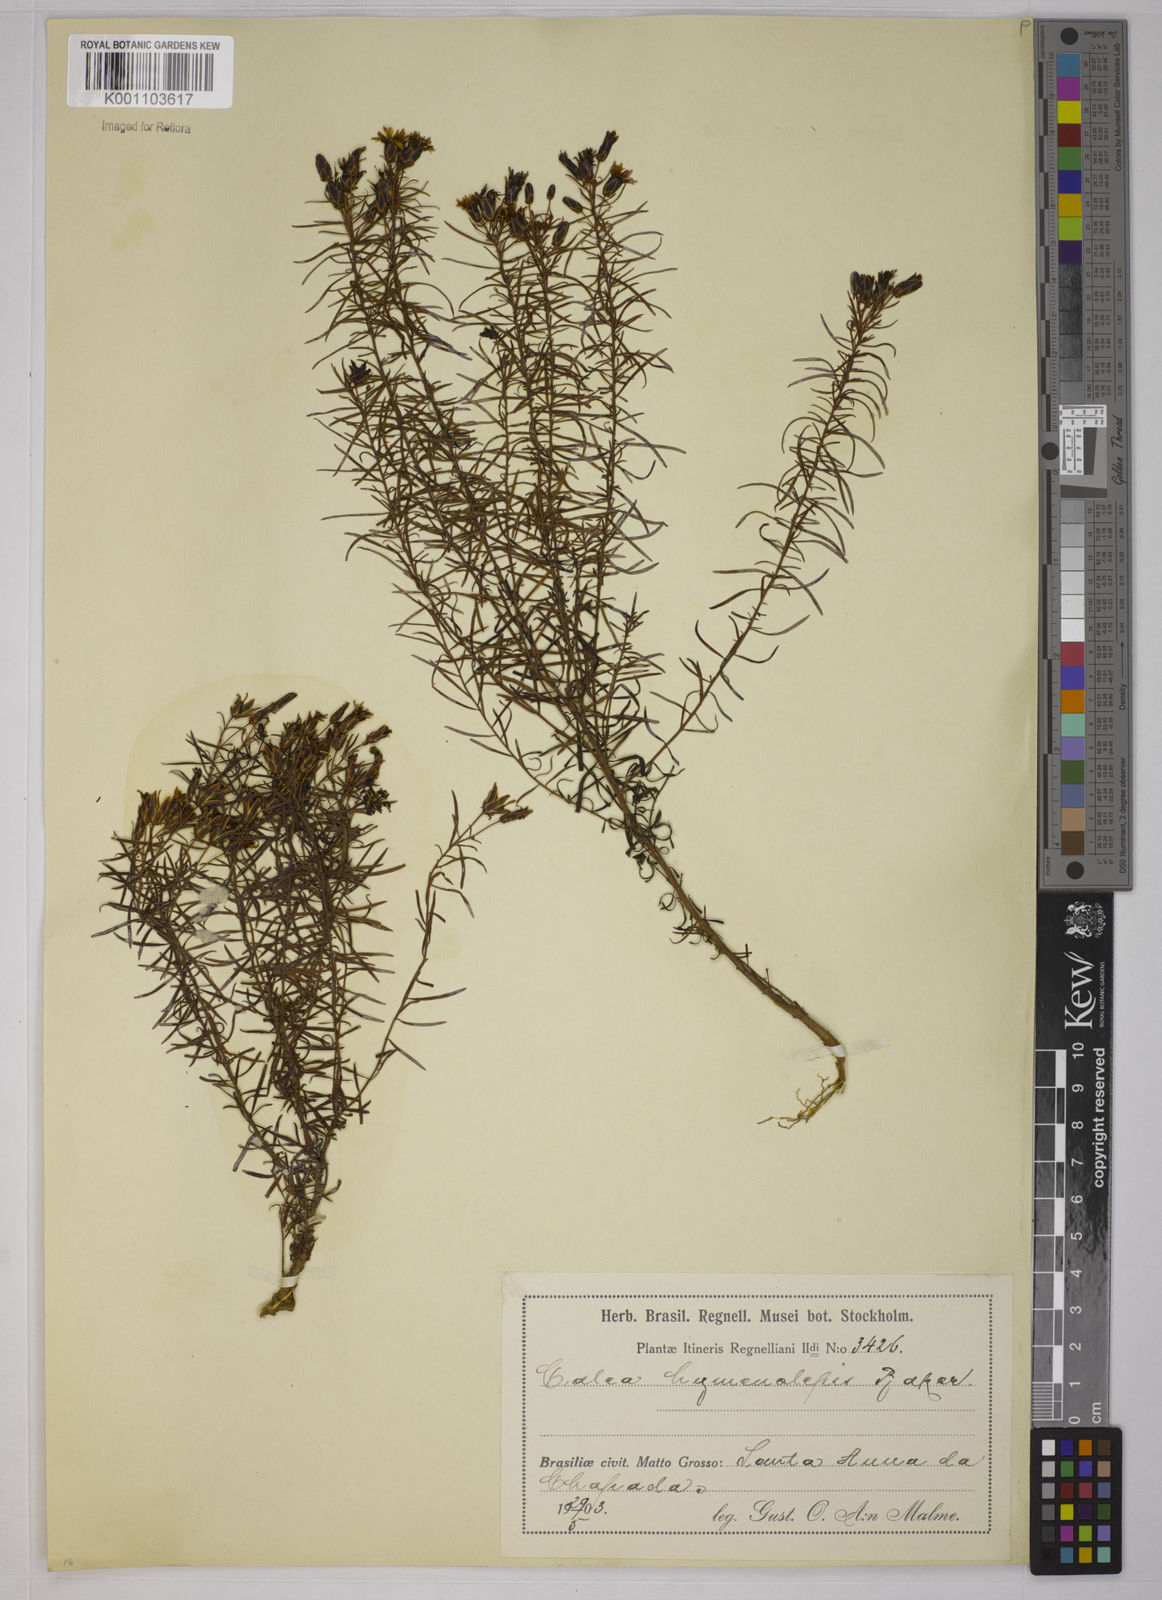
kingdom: Plantae
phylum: Tracheophyta
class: Magnoliopsida
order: Asterales
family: Asteraceae
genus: Calea
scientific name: Calea hymenolepis
